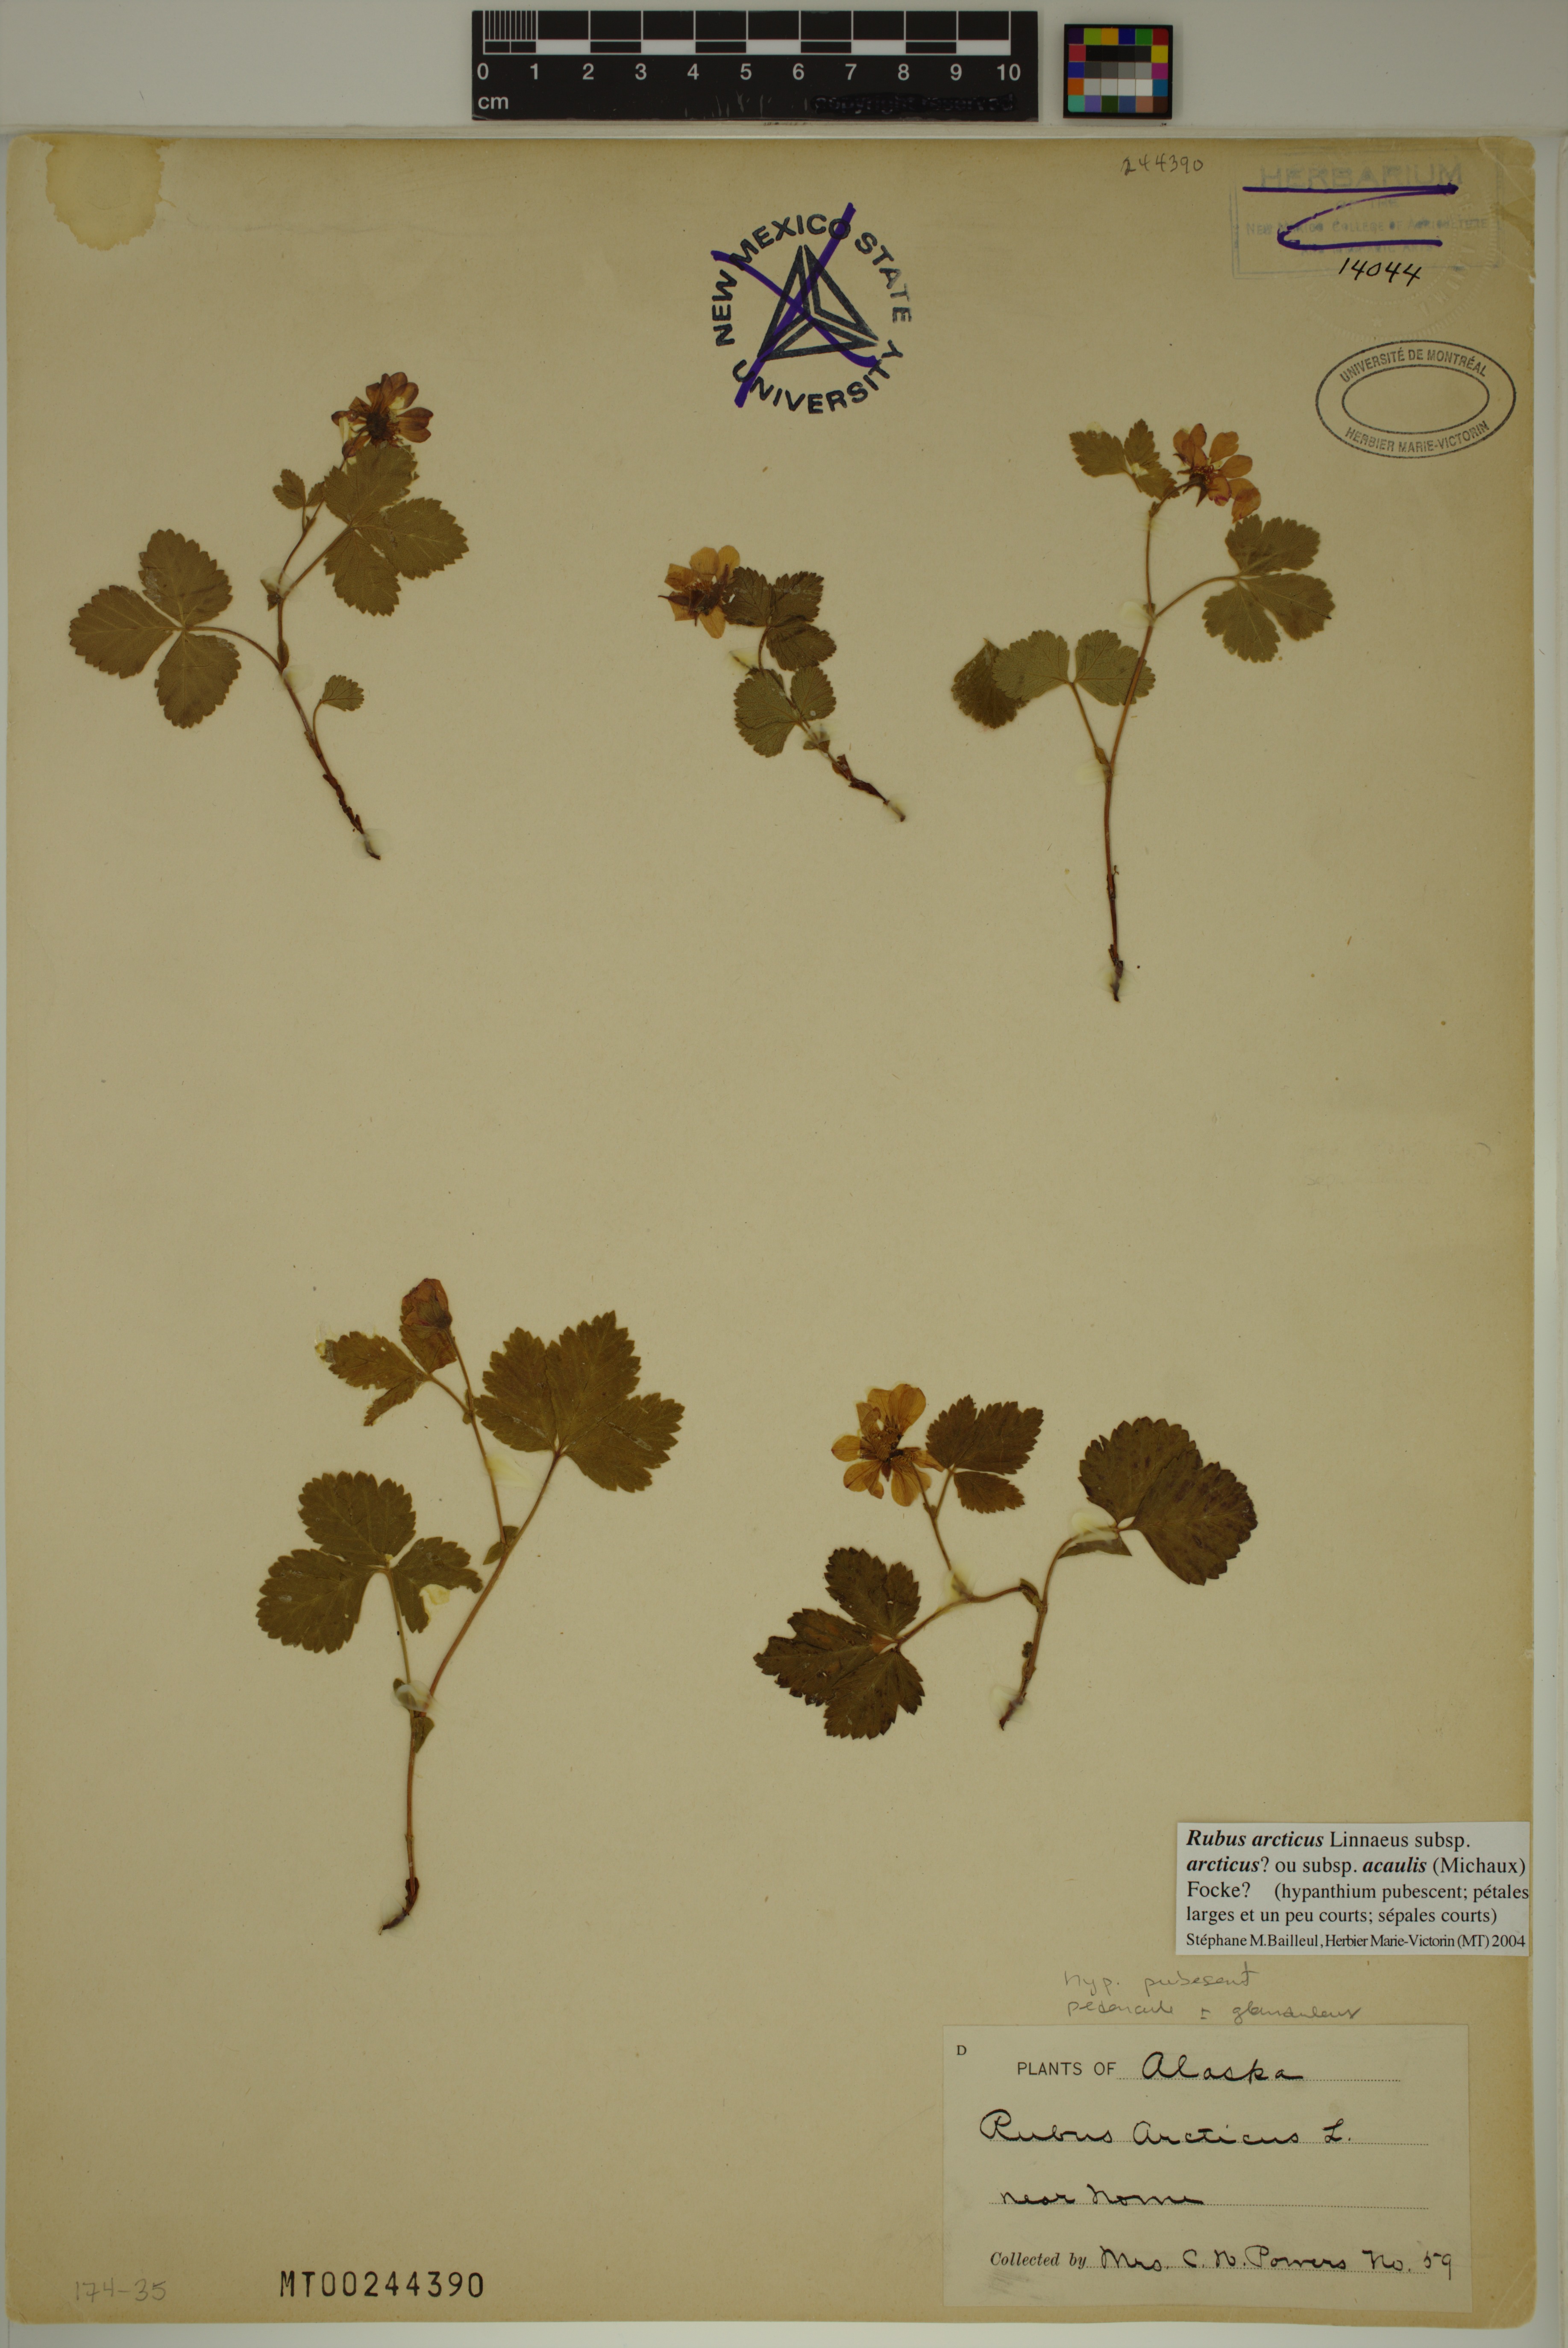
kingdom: Plantae
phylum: Tracheophyta
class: Magnoliopsida
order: Rosales
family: Rosaceae
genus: Rubus
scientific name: Rubus arcticus
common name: Arctic bramble
